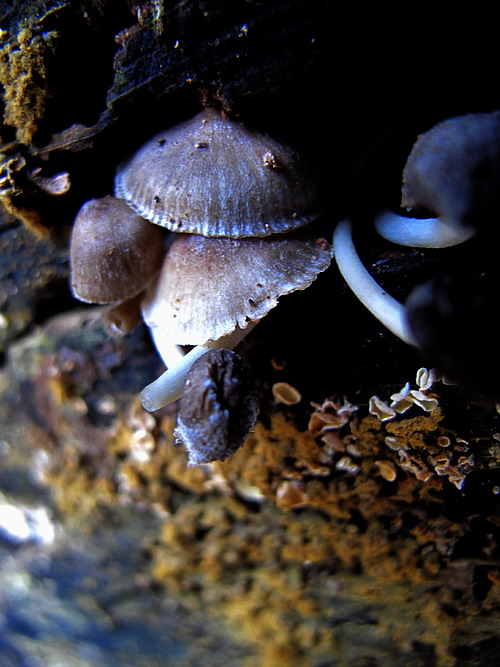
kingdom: Fungi
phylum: Basidiomycota
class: Agaricomycetes
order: Agaricales
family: Mycenaceae
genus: Mycena
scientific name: Mycena tintinnabulum
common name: vinter-huesvamp
